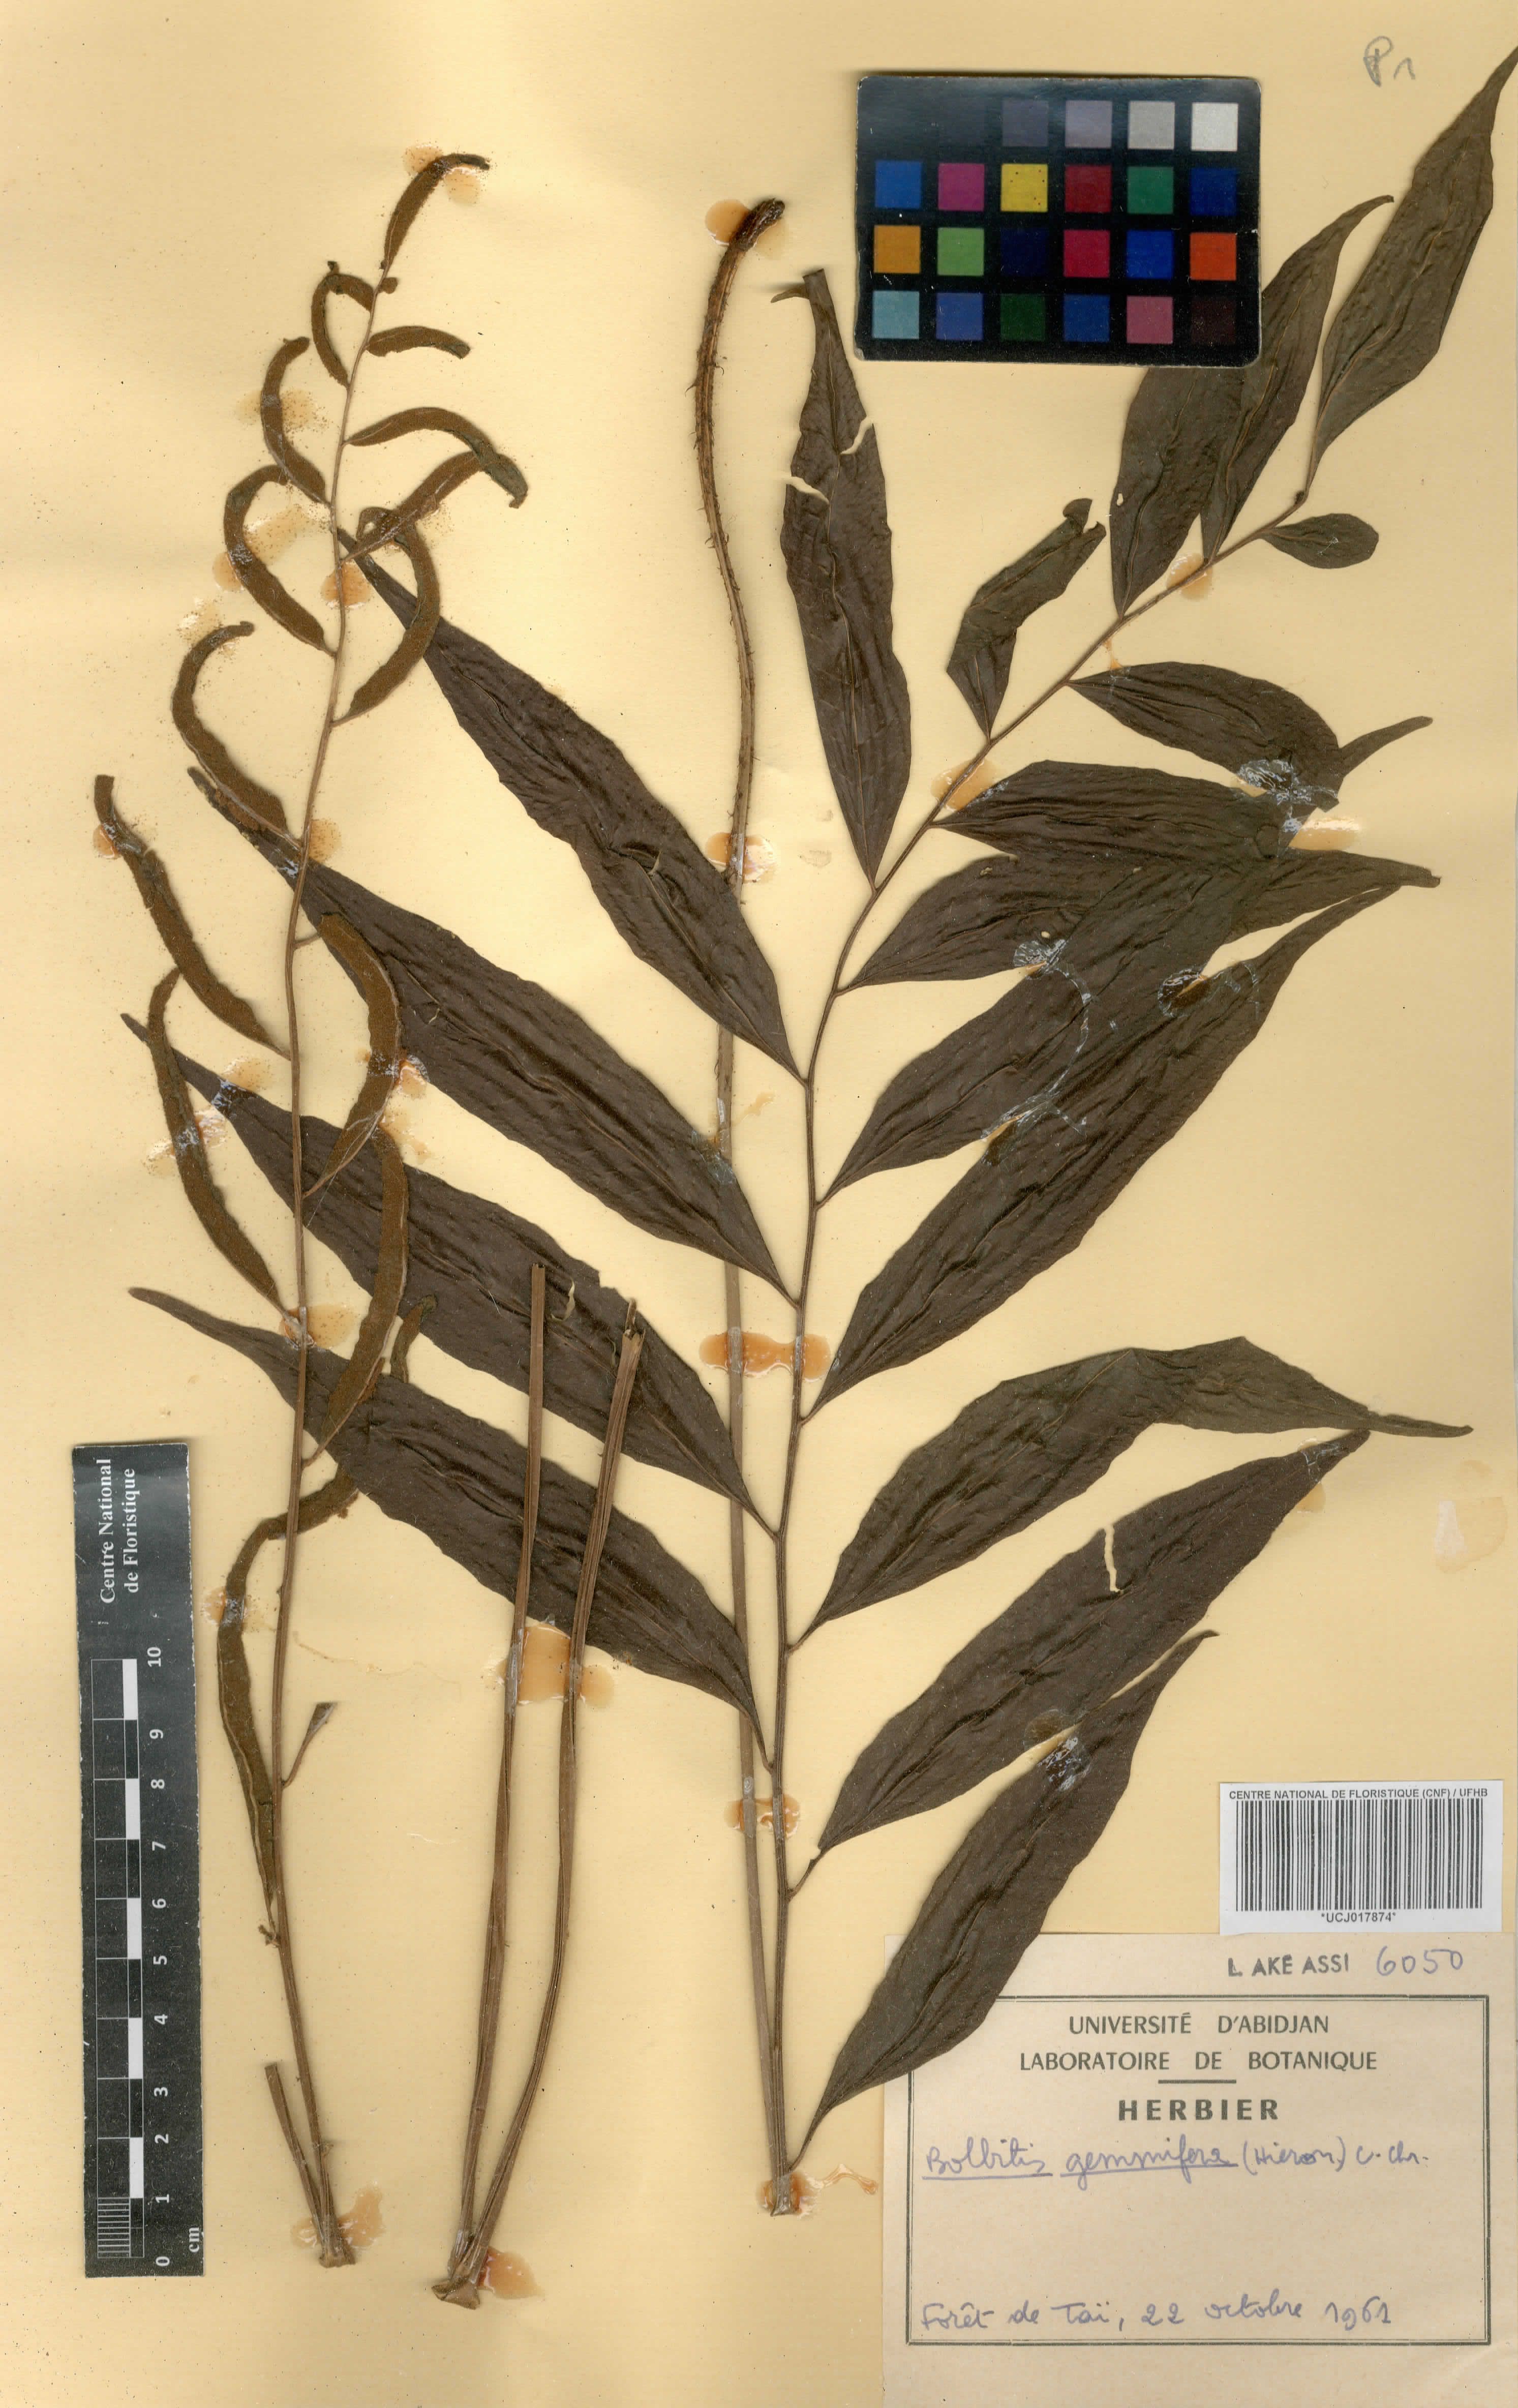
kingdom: Plantae
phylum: Tracheophyta
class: Polypodiopsida
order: Polypodiales
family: Dryopteridaceae
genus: Bolbitis
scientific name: Bolbitis gemmifer
